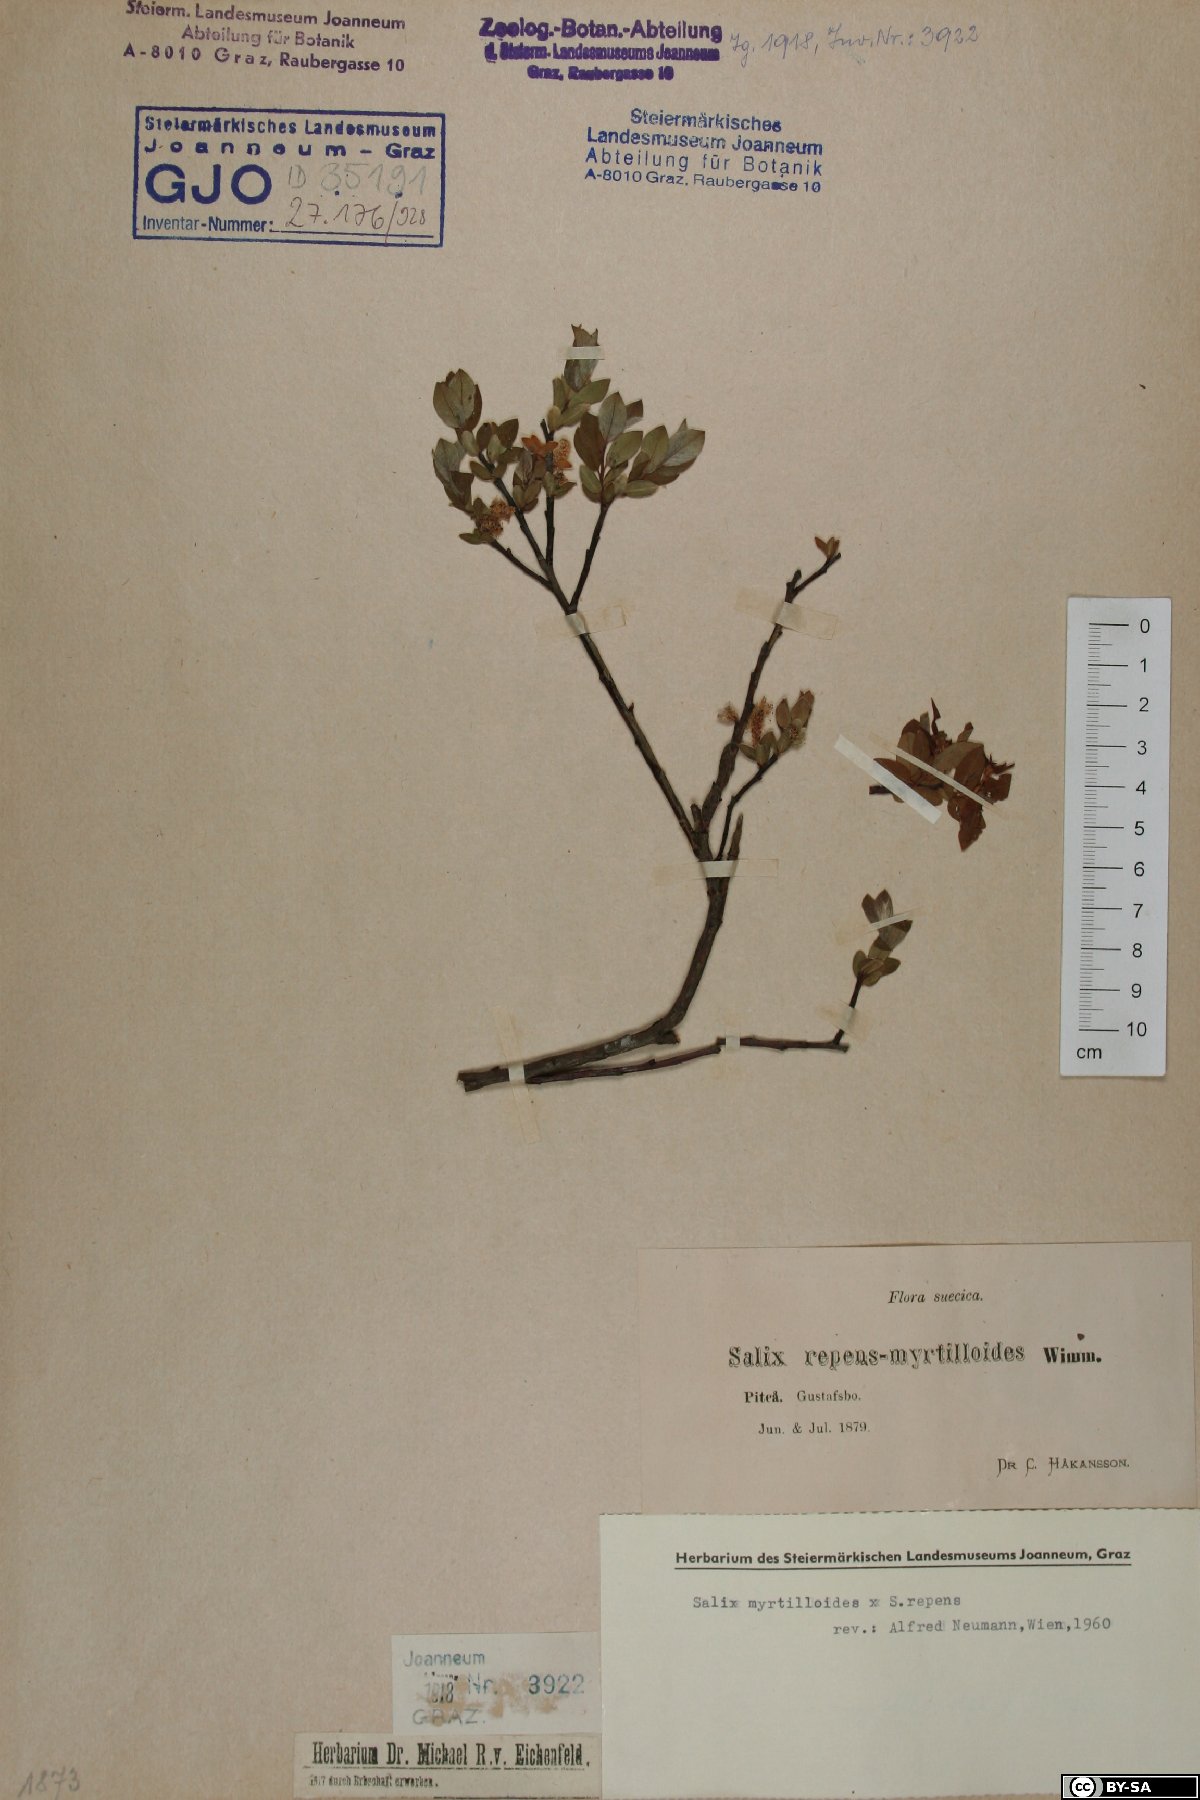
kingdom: Plantae
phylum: Tracheophyta
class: Magnoliopsida
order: Malpighiales
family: Salicaceae
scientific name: Salicaceae
